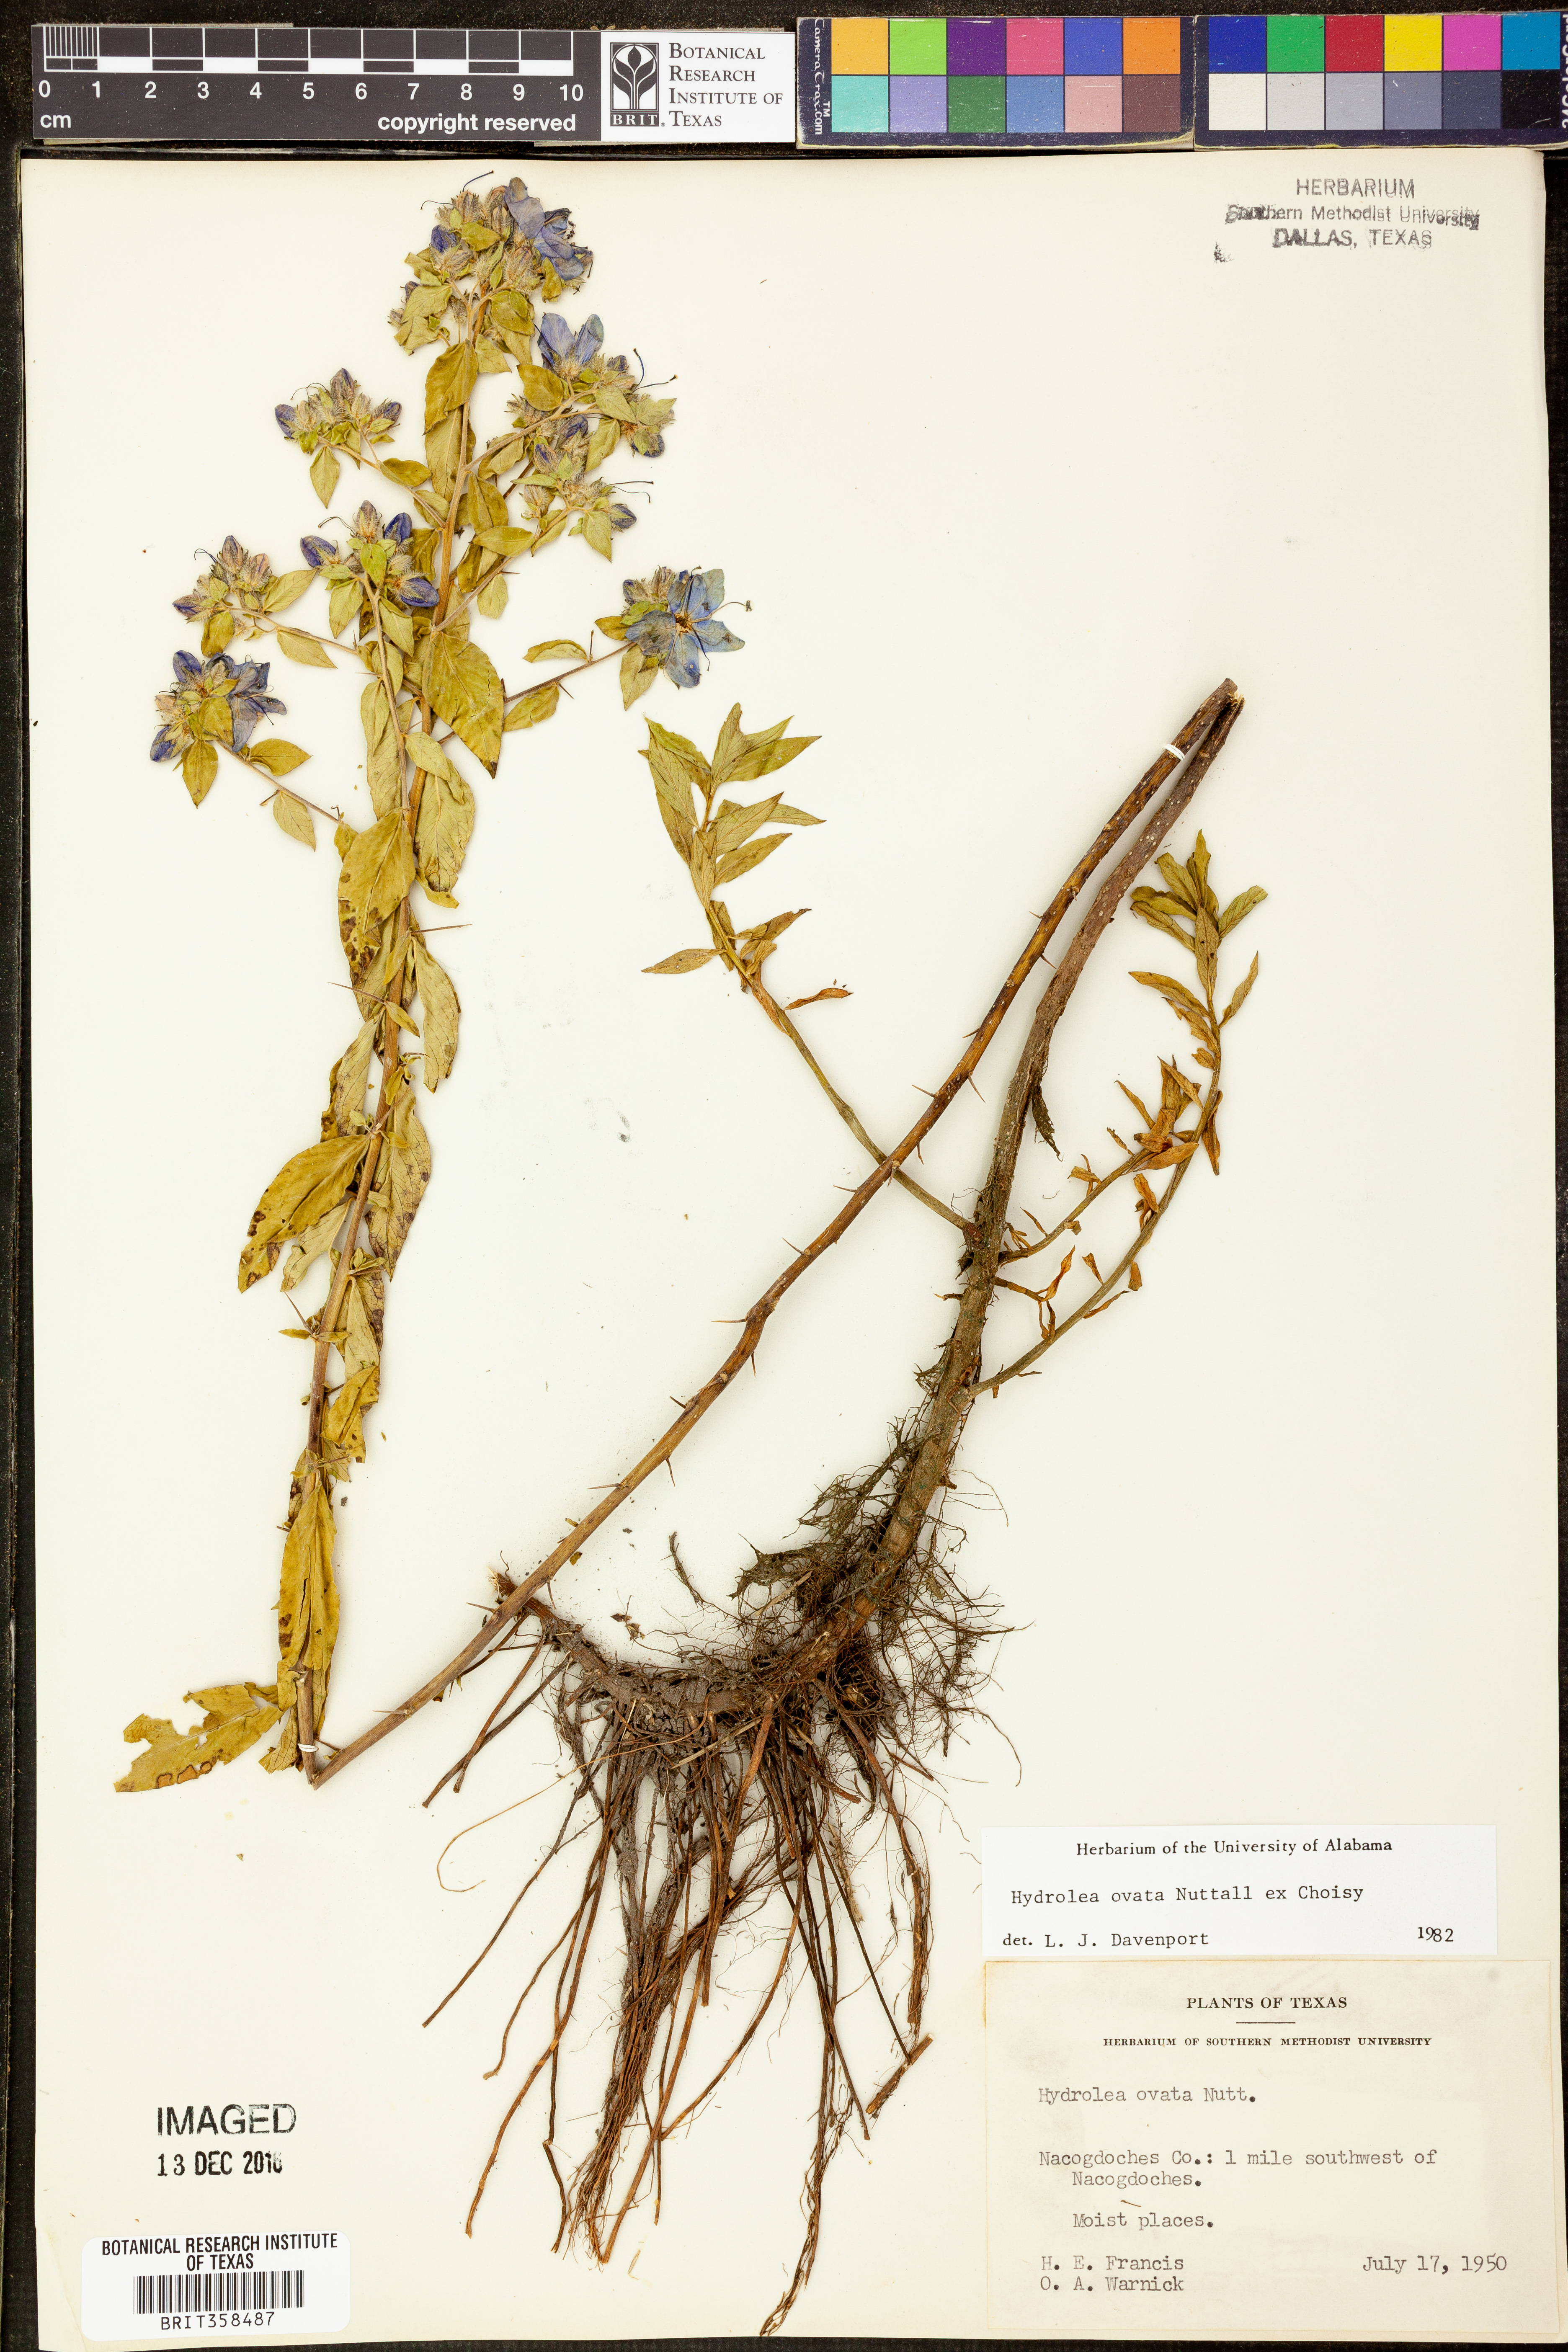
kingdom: Plantae
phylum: Tracheophyta
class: Magnoliopsida
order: Solanales
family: Hydroleaceae
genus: Hydrolea
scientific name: Hydrolea ovata
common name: Ovate false fiddleleaf
